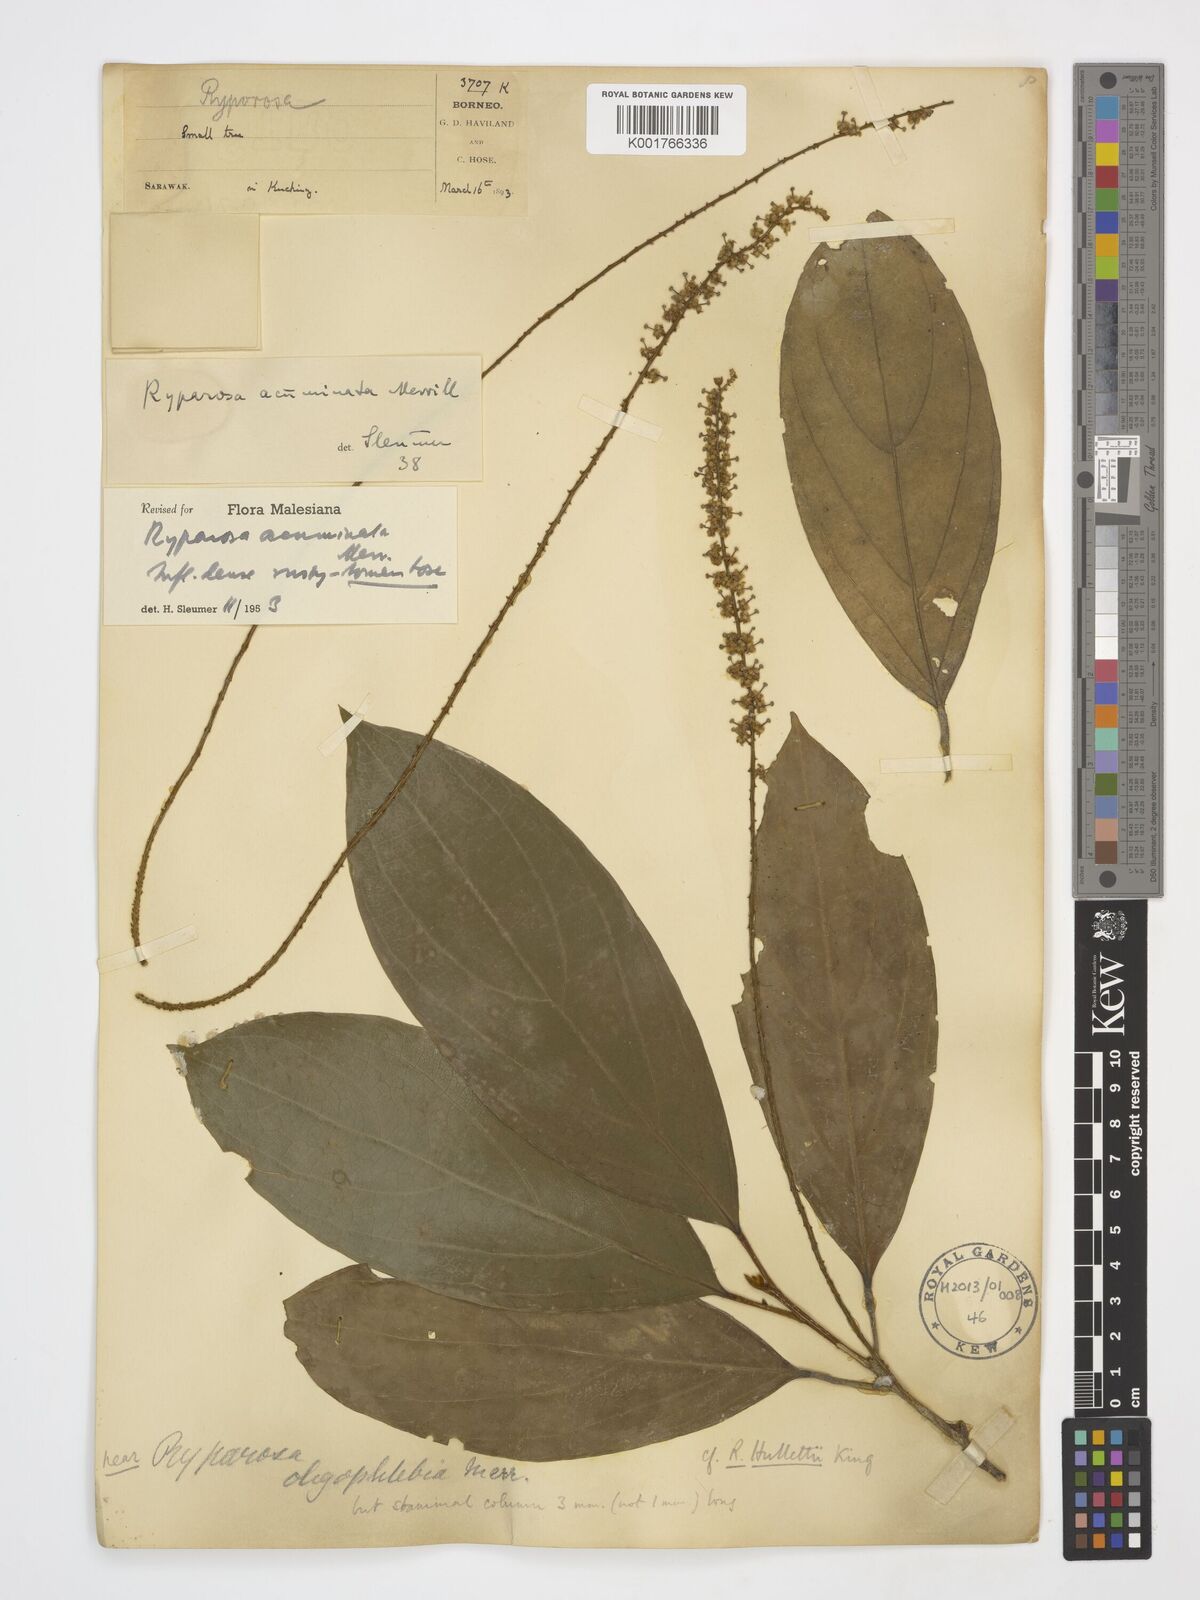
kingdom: Plantae
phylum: Tracheophyta
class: Magnoliopsida
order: Malpighiales
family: Achariaceae
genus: Ryparosa
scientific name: Ryparosa acuminata
